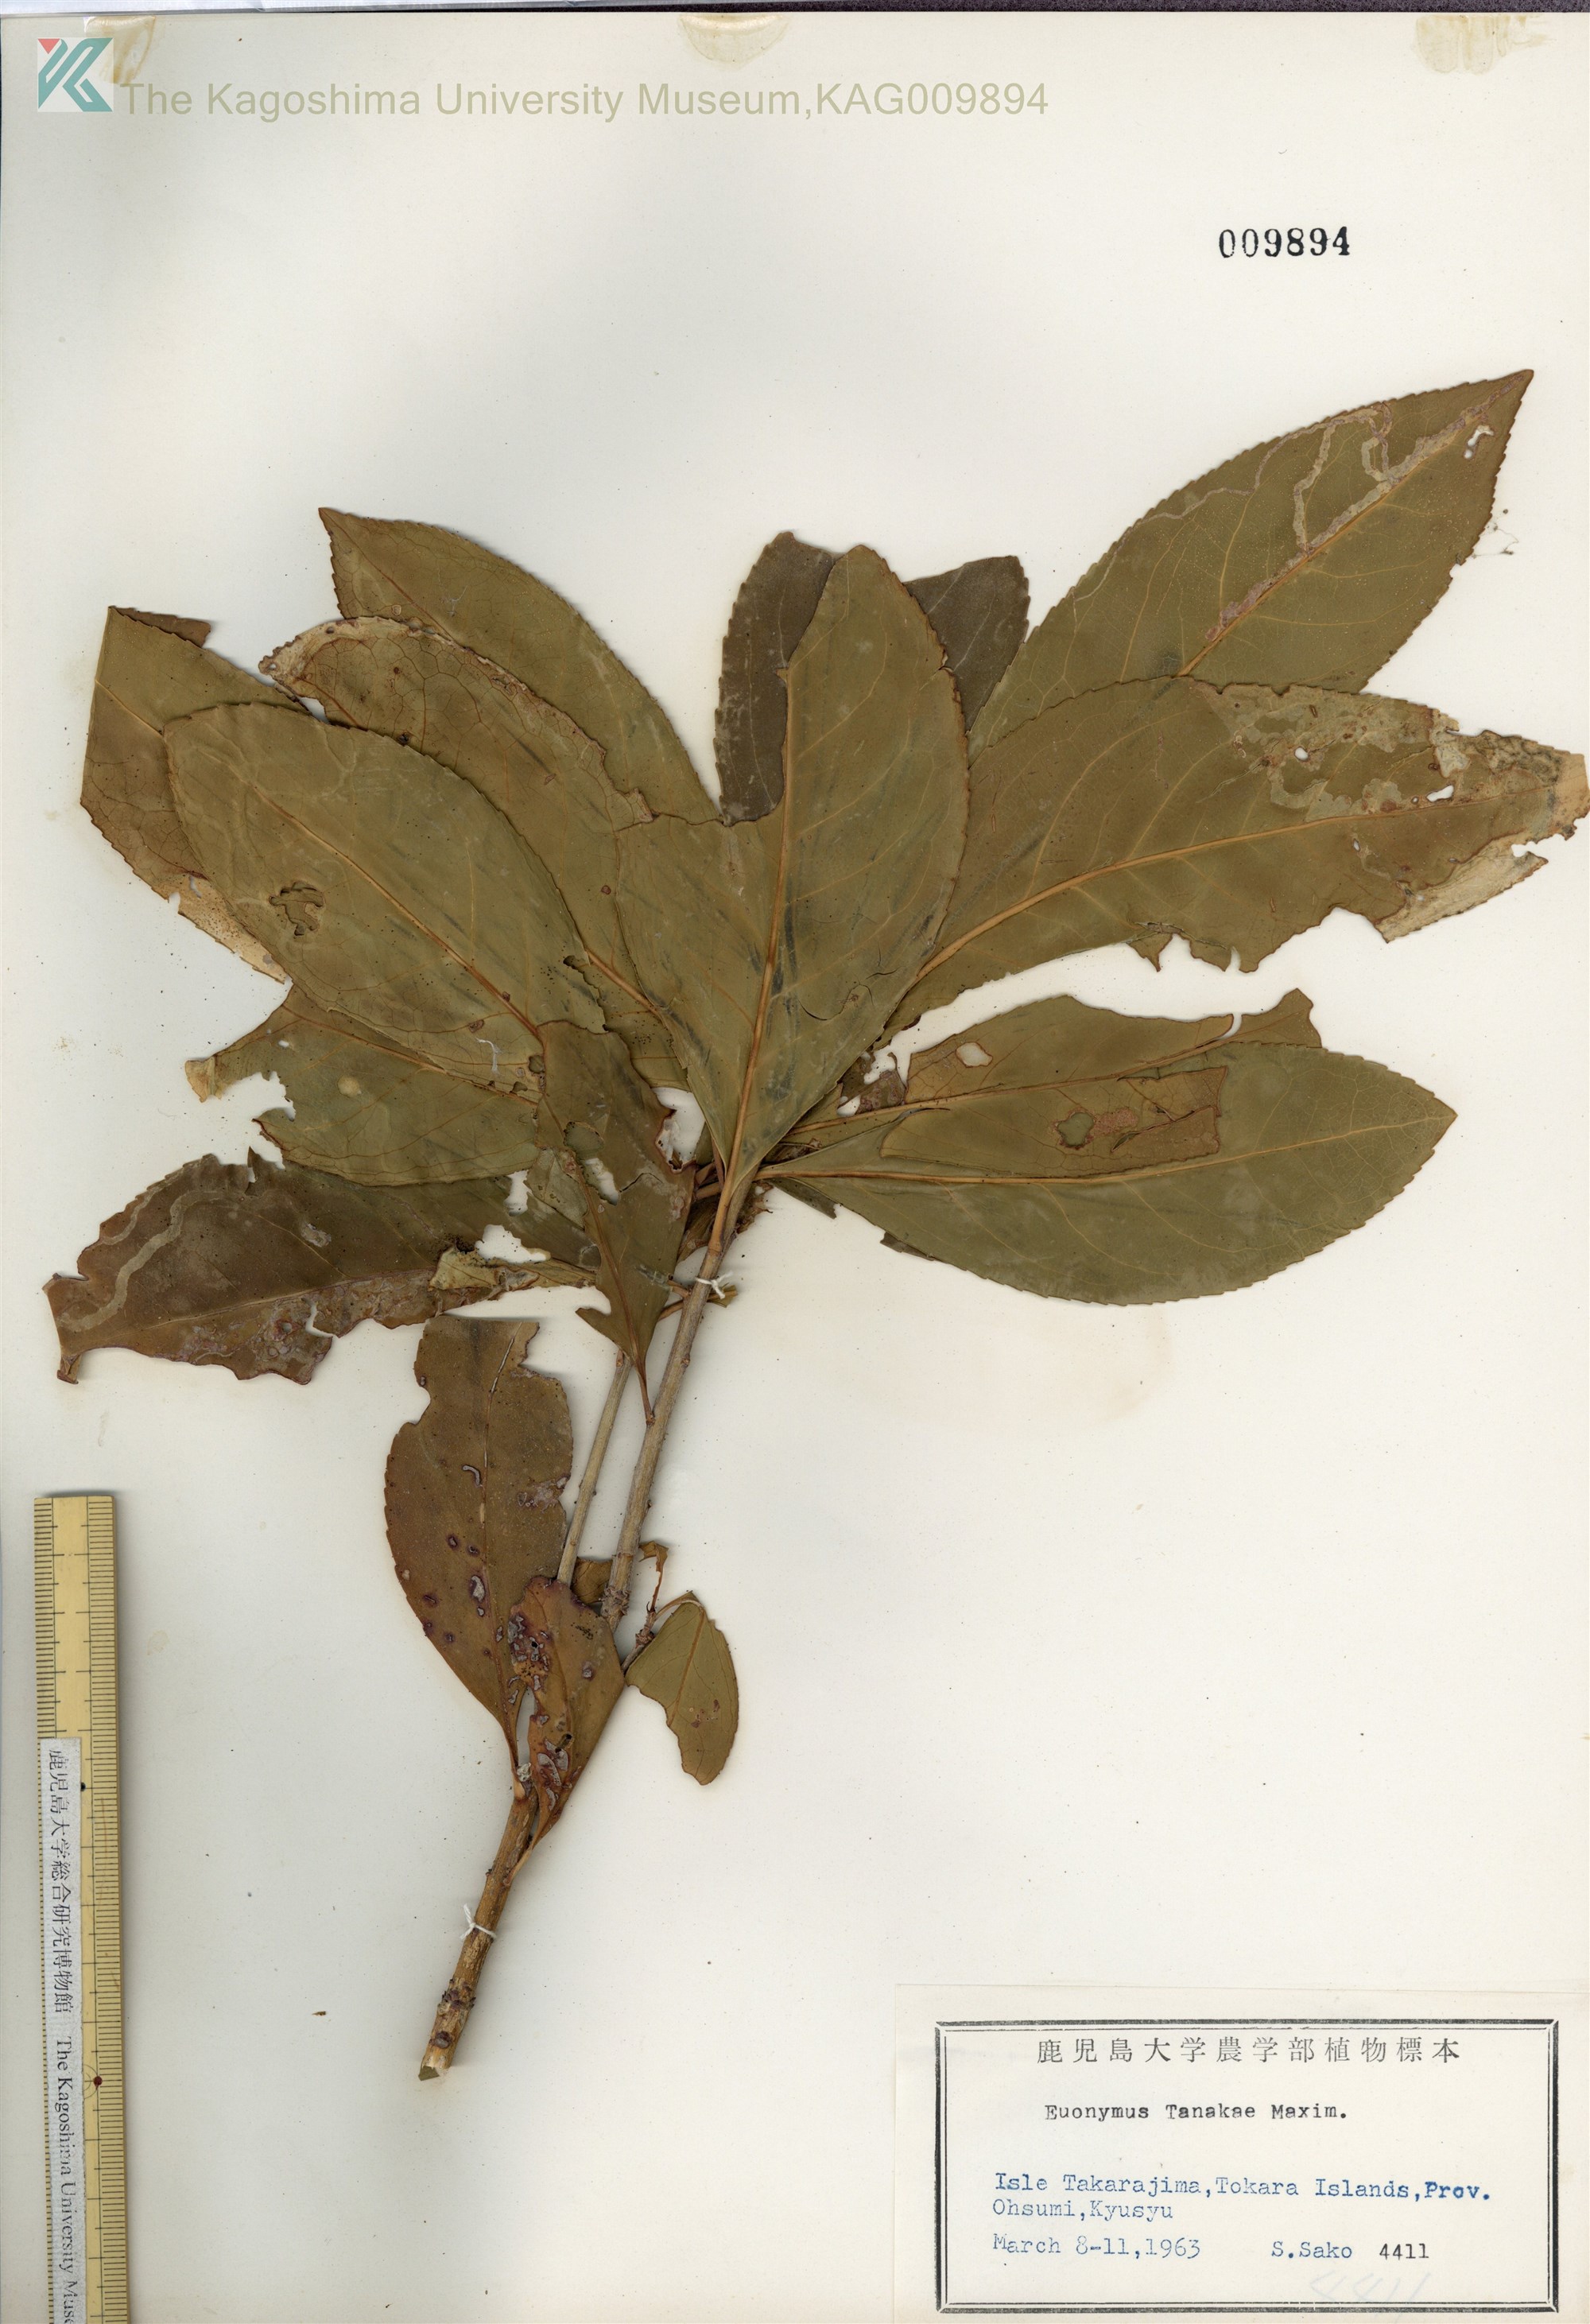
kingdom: Plantae
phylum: Tracheophyta
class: Magnoliopsida
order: Celastrales
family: Celastraceae
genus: Euonymus
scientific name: Euonymus carnosus
